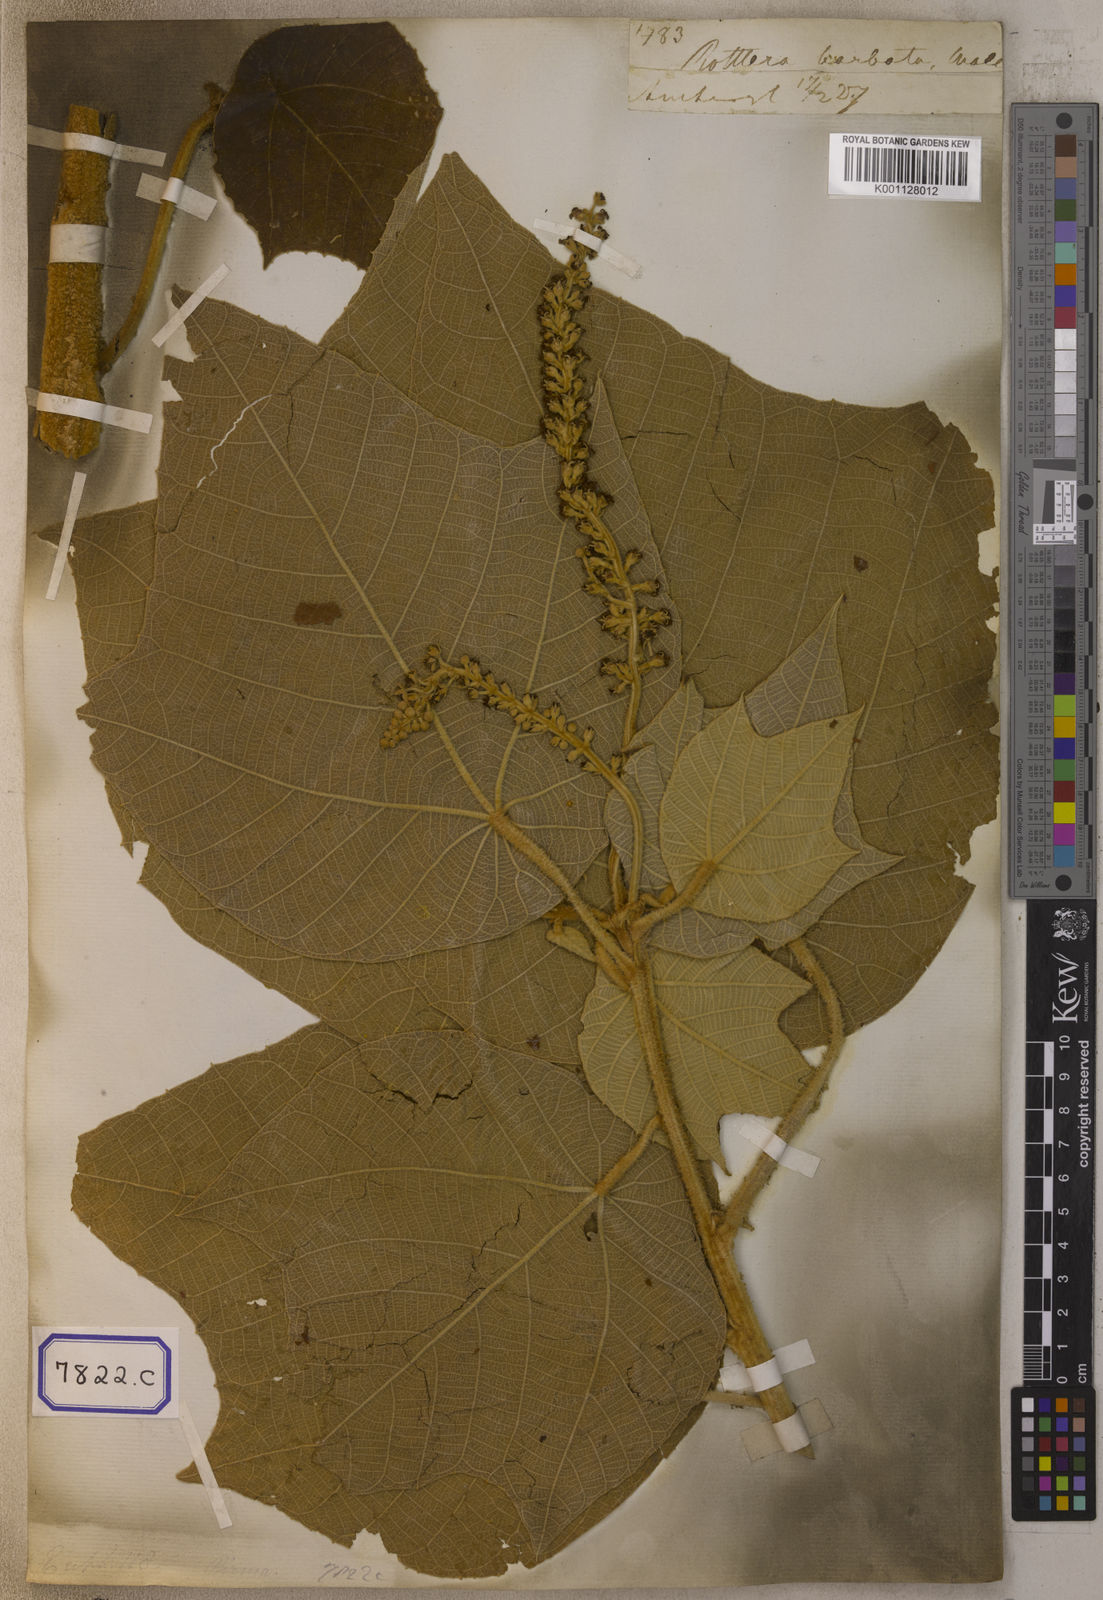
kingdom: Plantae
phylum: Tracheophyta
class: Magnoliopsida
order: Malpighiales
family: Euphorbiaceae
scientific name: Euphorbiaceae
